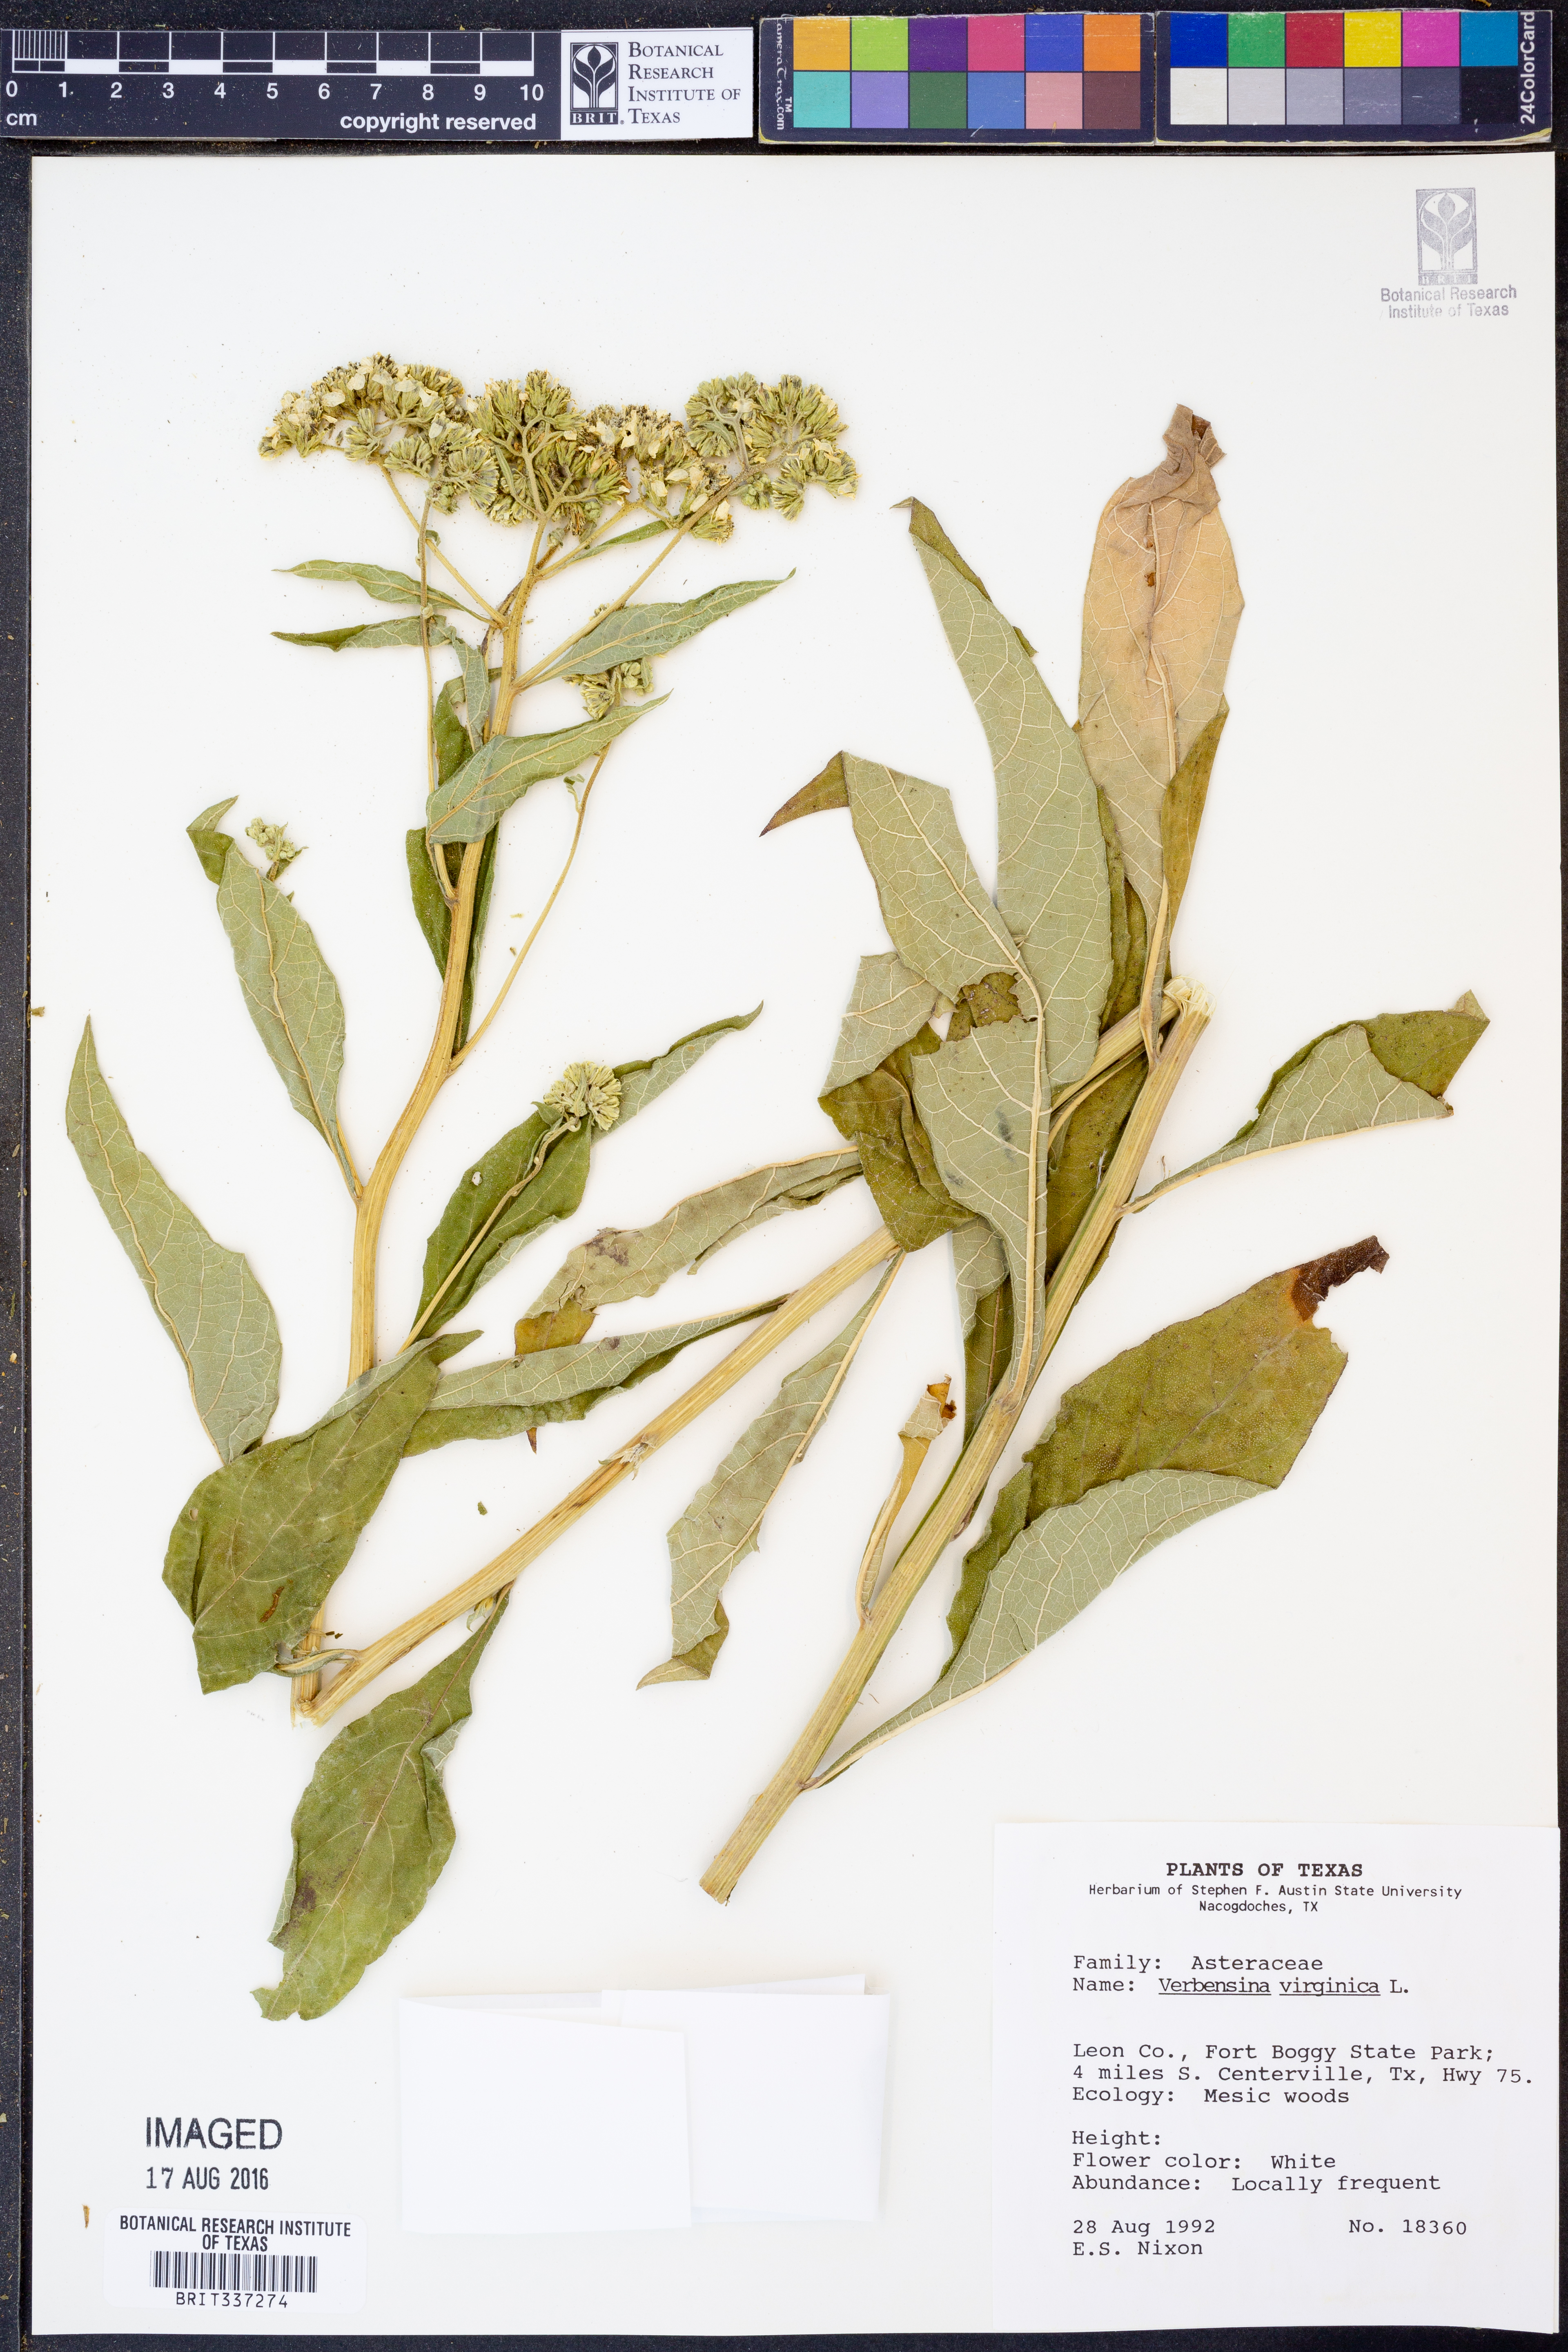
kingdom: Plantae
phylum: Tracheophyta
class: Magnoliopsida
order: Asterales
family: Asteraceae
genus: Verbesina
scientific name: Verbesina virginica
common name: Frostweed
